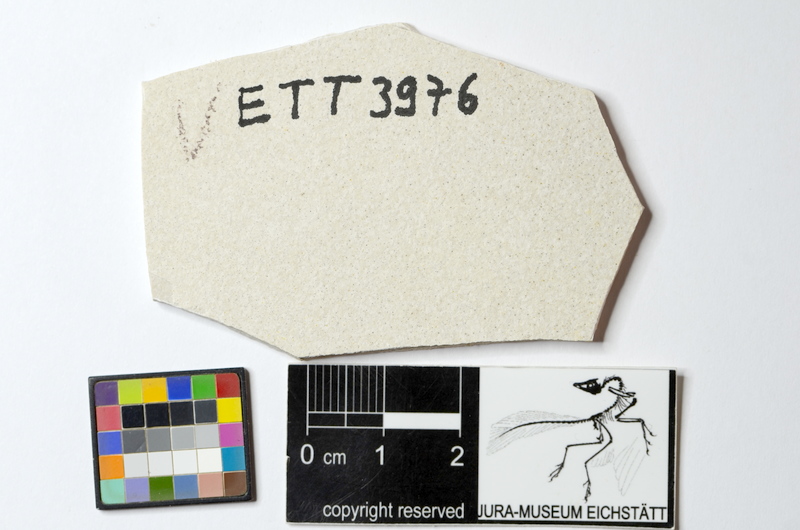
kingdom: Animalia
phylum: Chordata
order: Salmoniformes
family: Orthogonikleithridae
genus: Orthogonikleithrus
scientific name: Orthogonikleithrus hoelli
